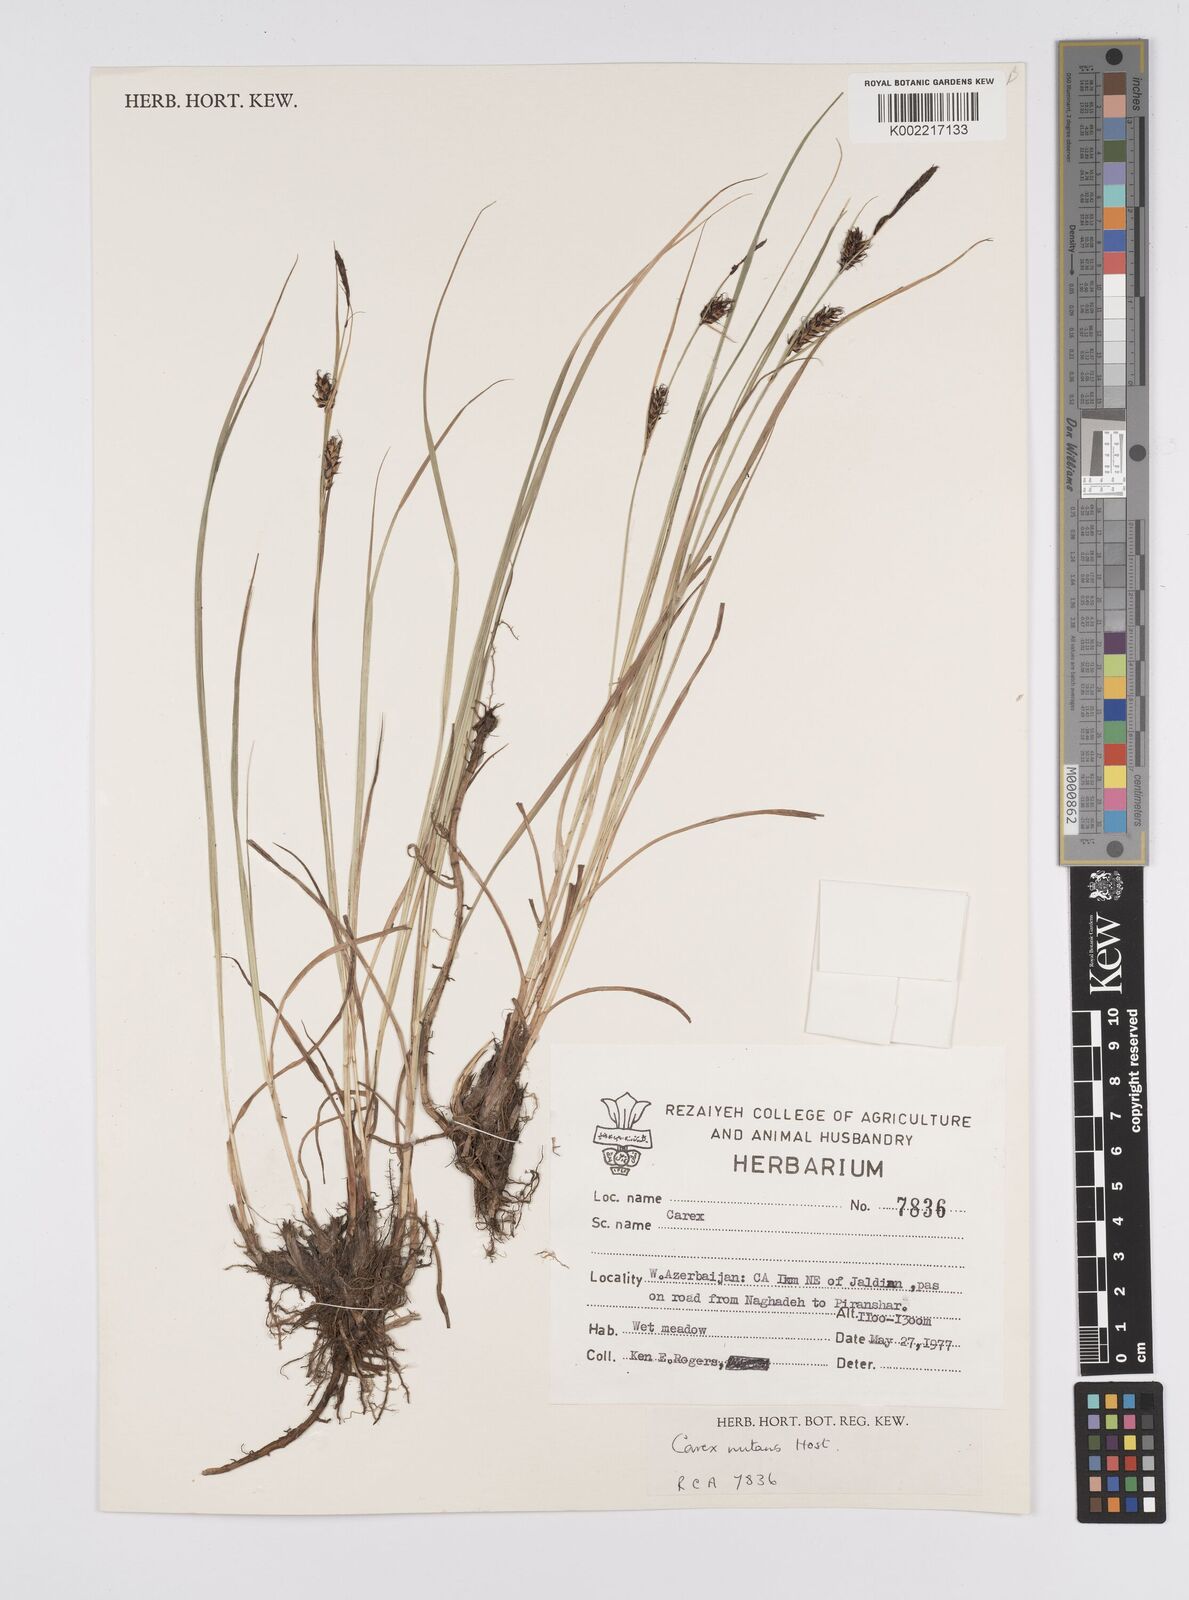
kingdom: Plantae
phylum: Tracheophyta
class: Liliopsida
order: Poales
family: Cyperaceae
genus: Carex
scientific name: Carex melanostachya
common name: Black-spiked sedge
